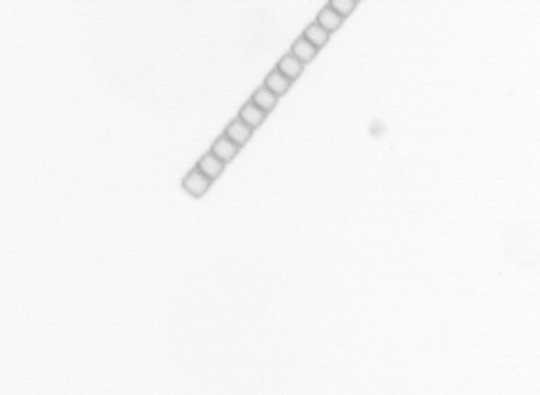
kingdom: Chromista
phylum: Ochrophyta
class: Bacillariophyceae
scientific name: Bacillariophyceae
